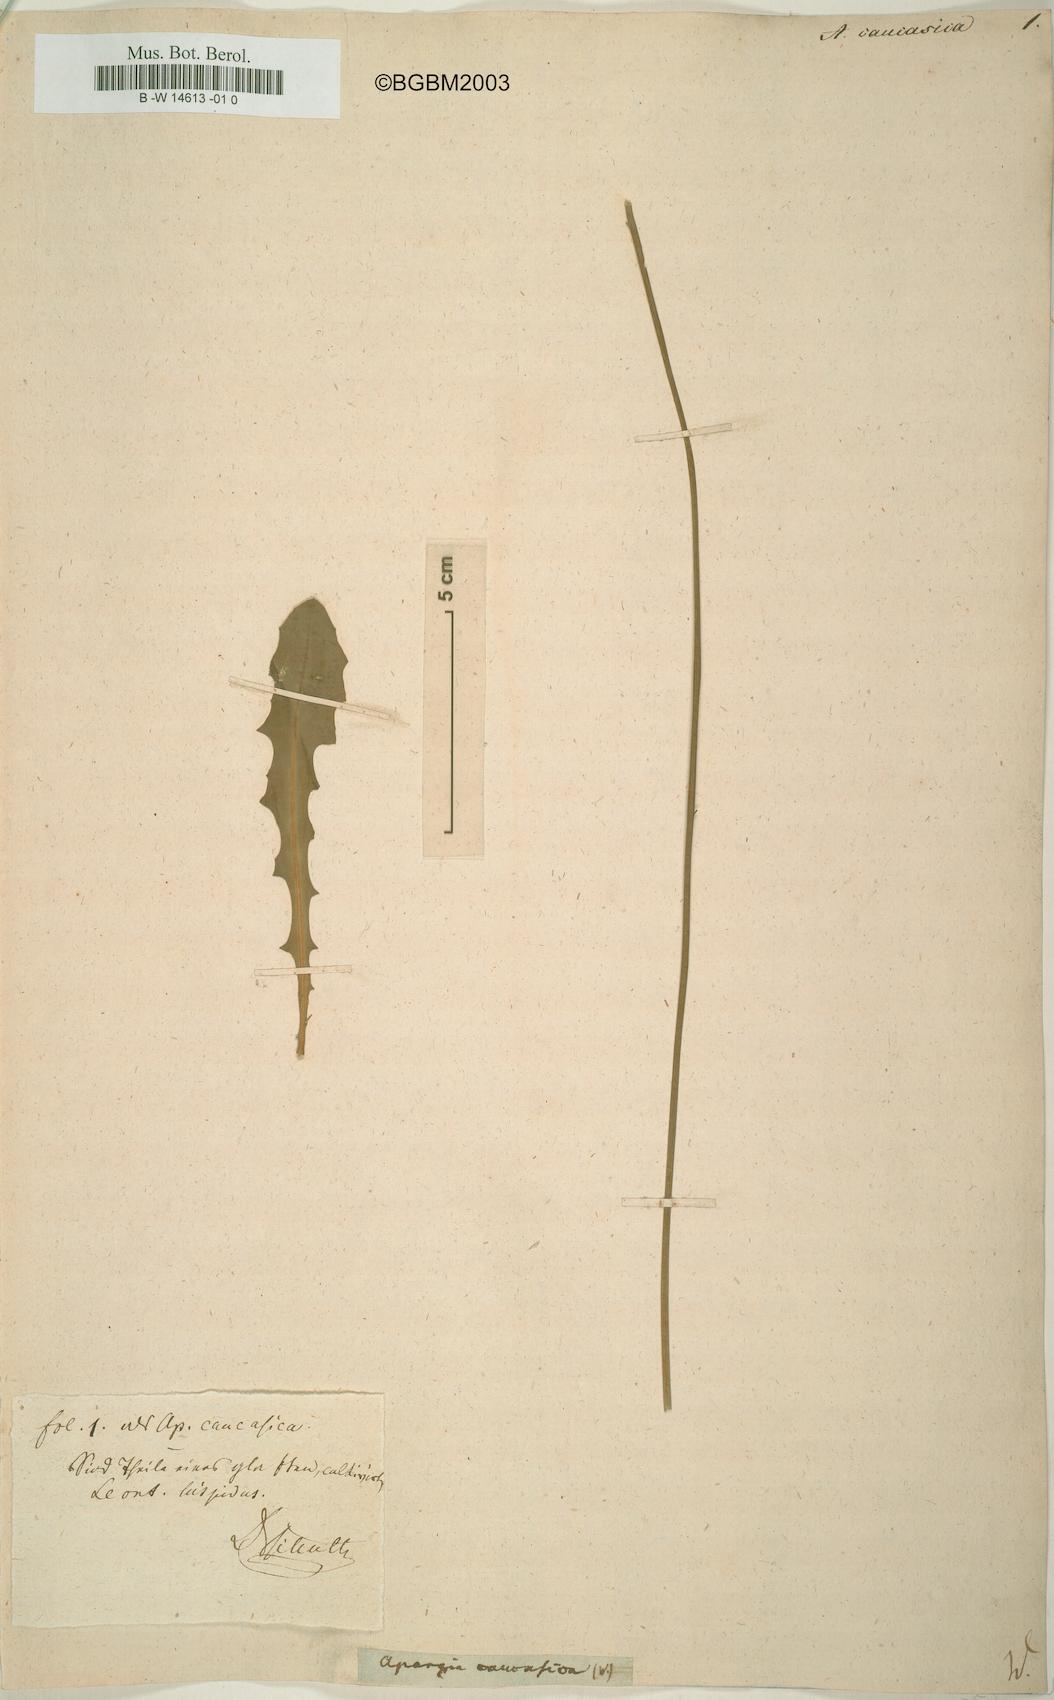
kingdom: Plantae
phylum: Tracheophyta
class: Magnoliopsida
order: Asterales
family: Asteraceae
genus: Leontodon
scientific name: Leontodon
